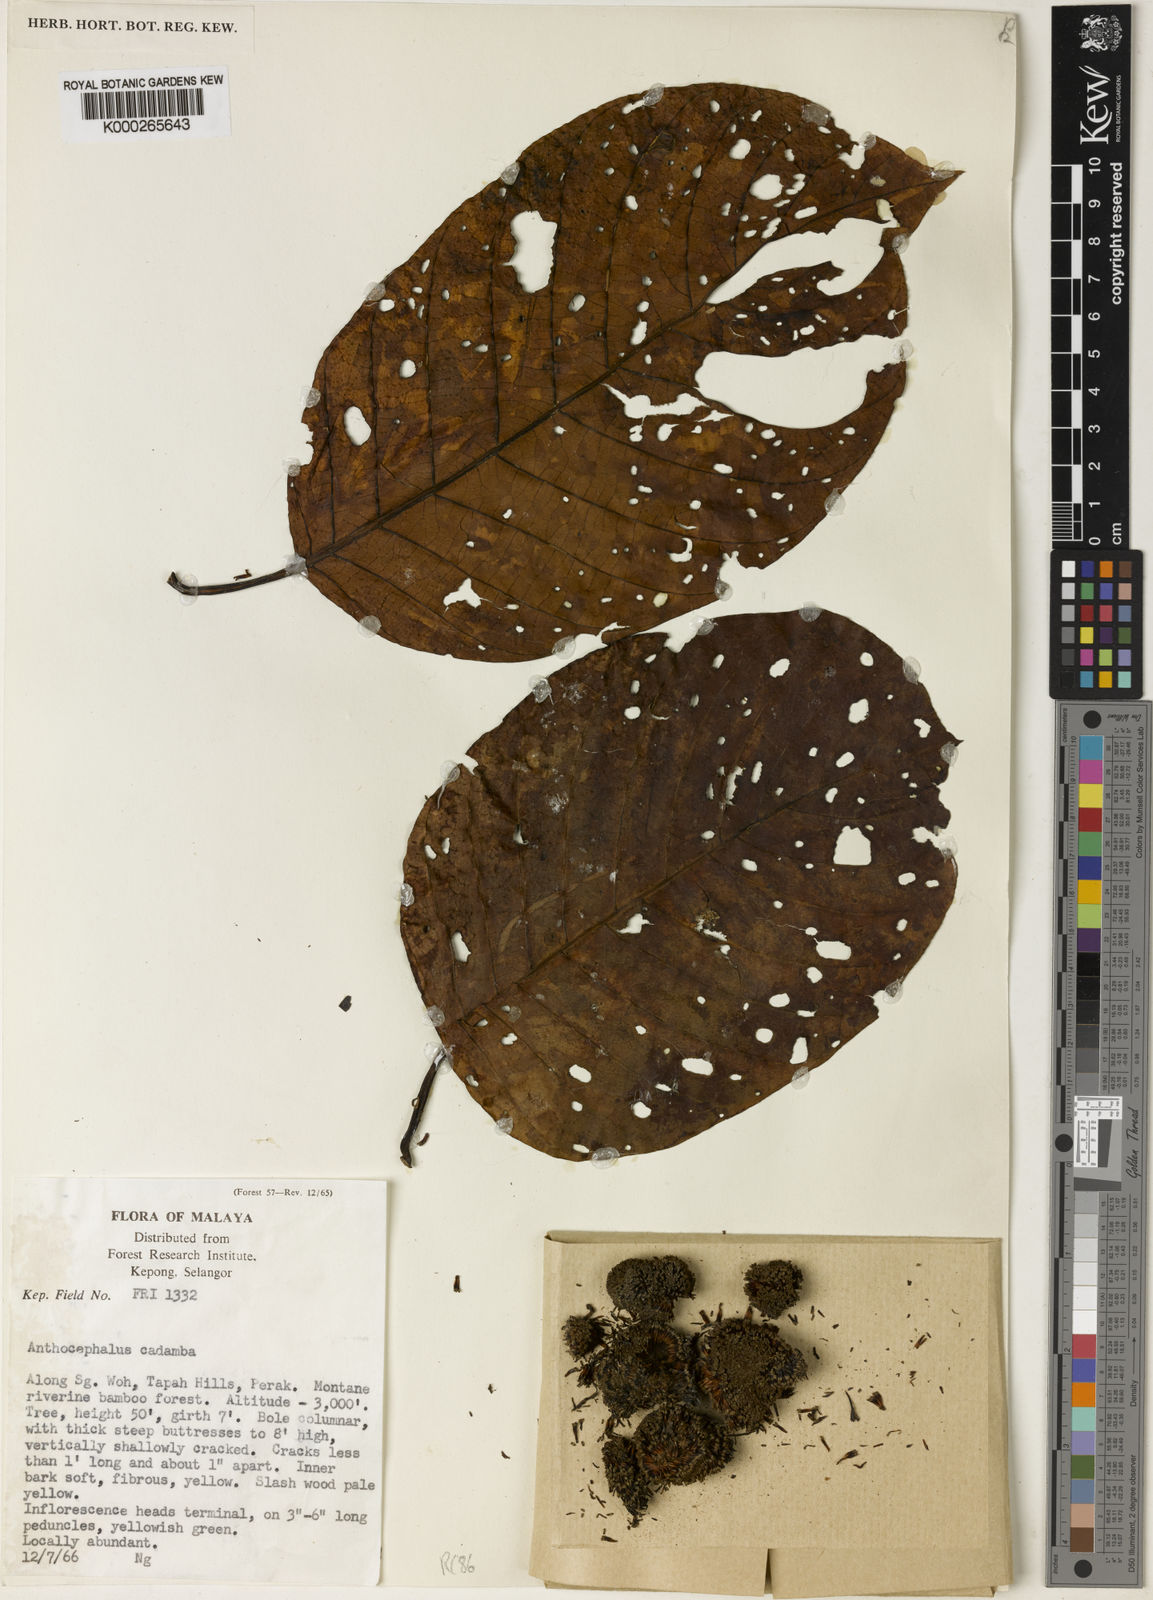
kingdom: Plantae
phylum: Tracheophyta
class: Magnoliopsida
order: Gentianales
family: Rubiaceae
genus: Neolamarckia
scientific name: Neolamarckia cadamba
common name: Leichhardt-pine
